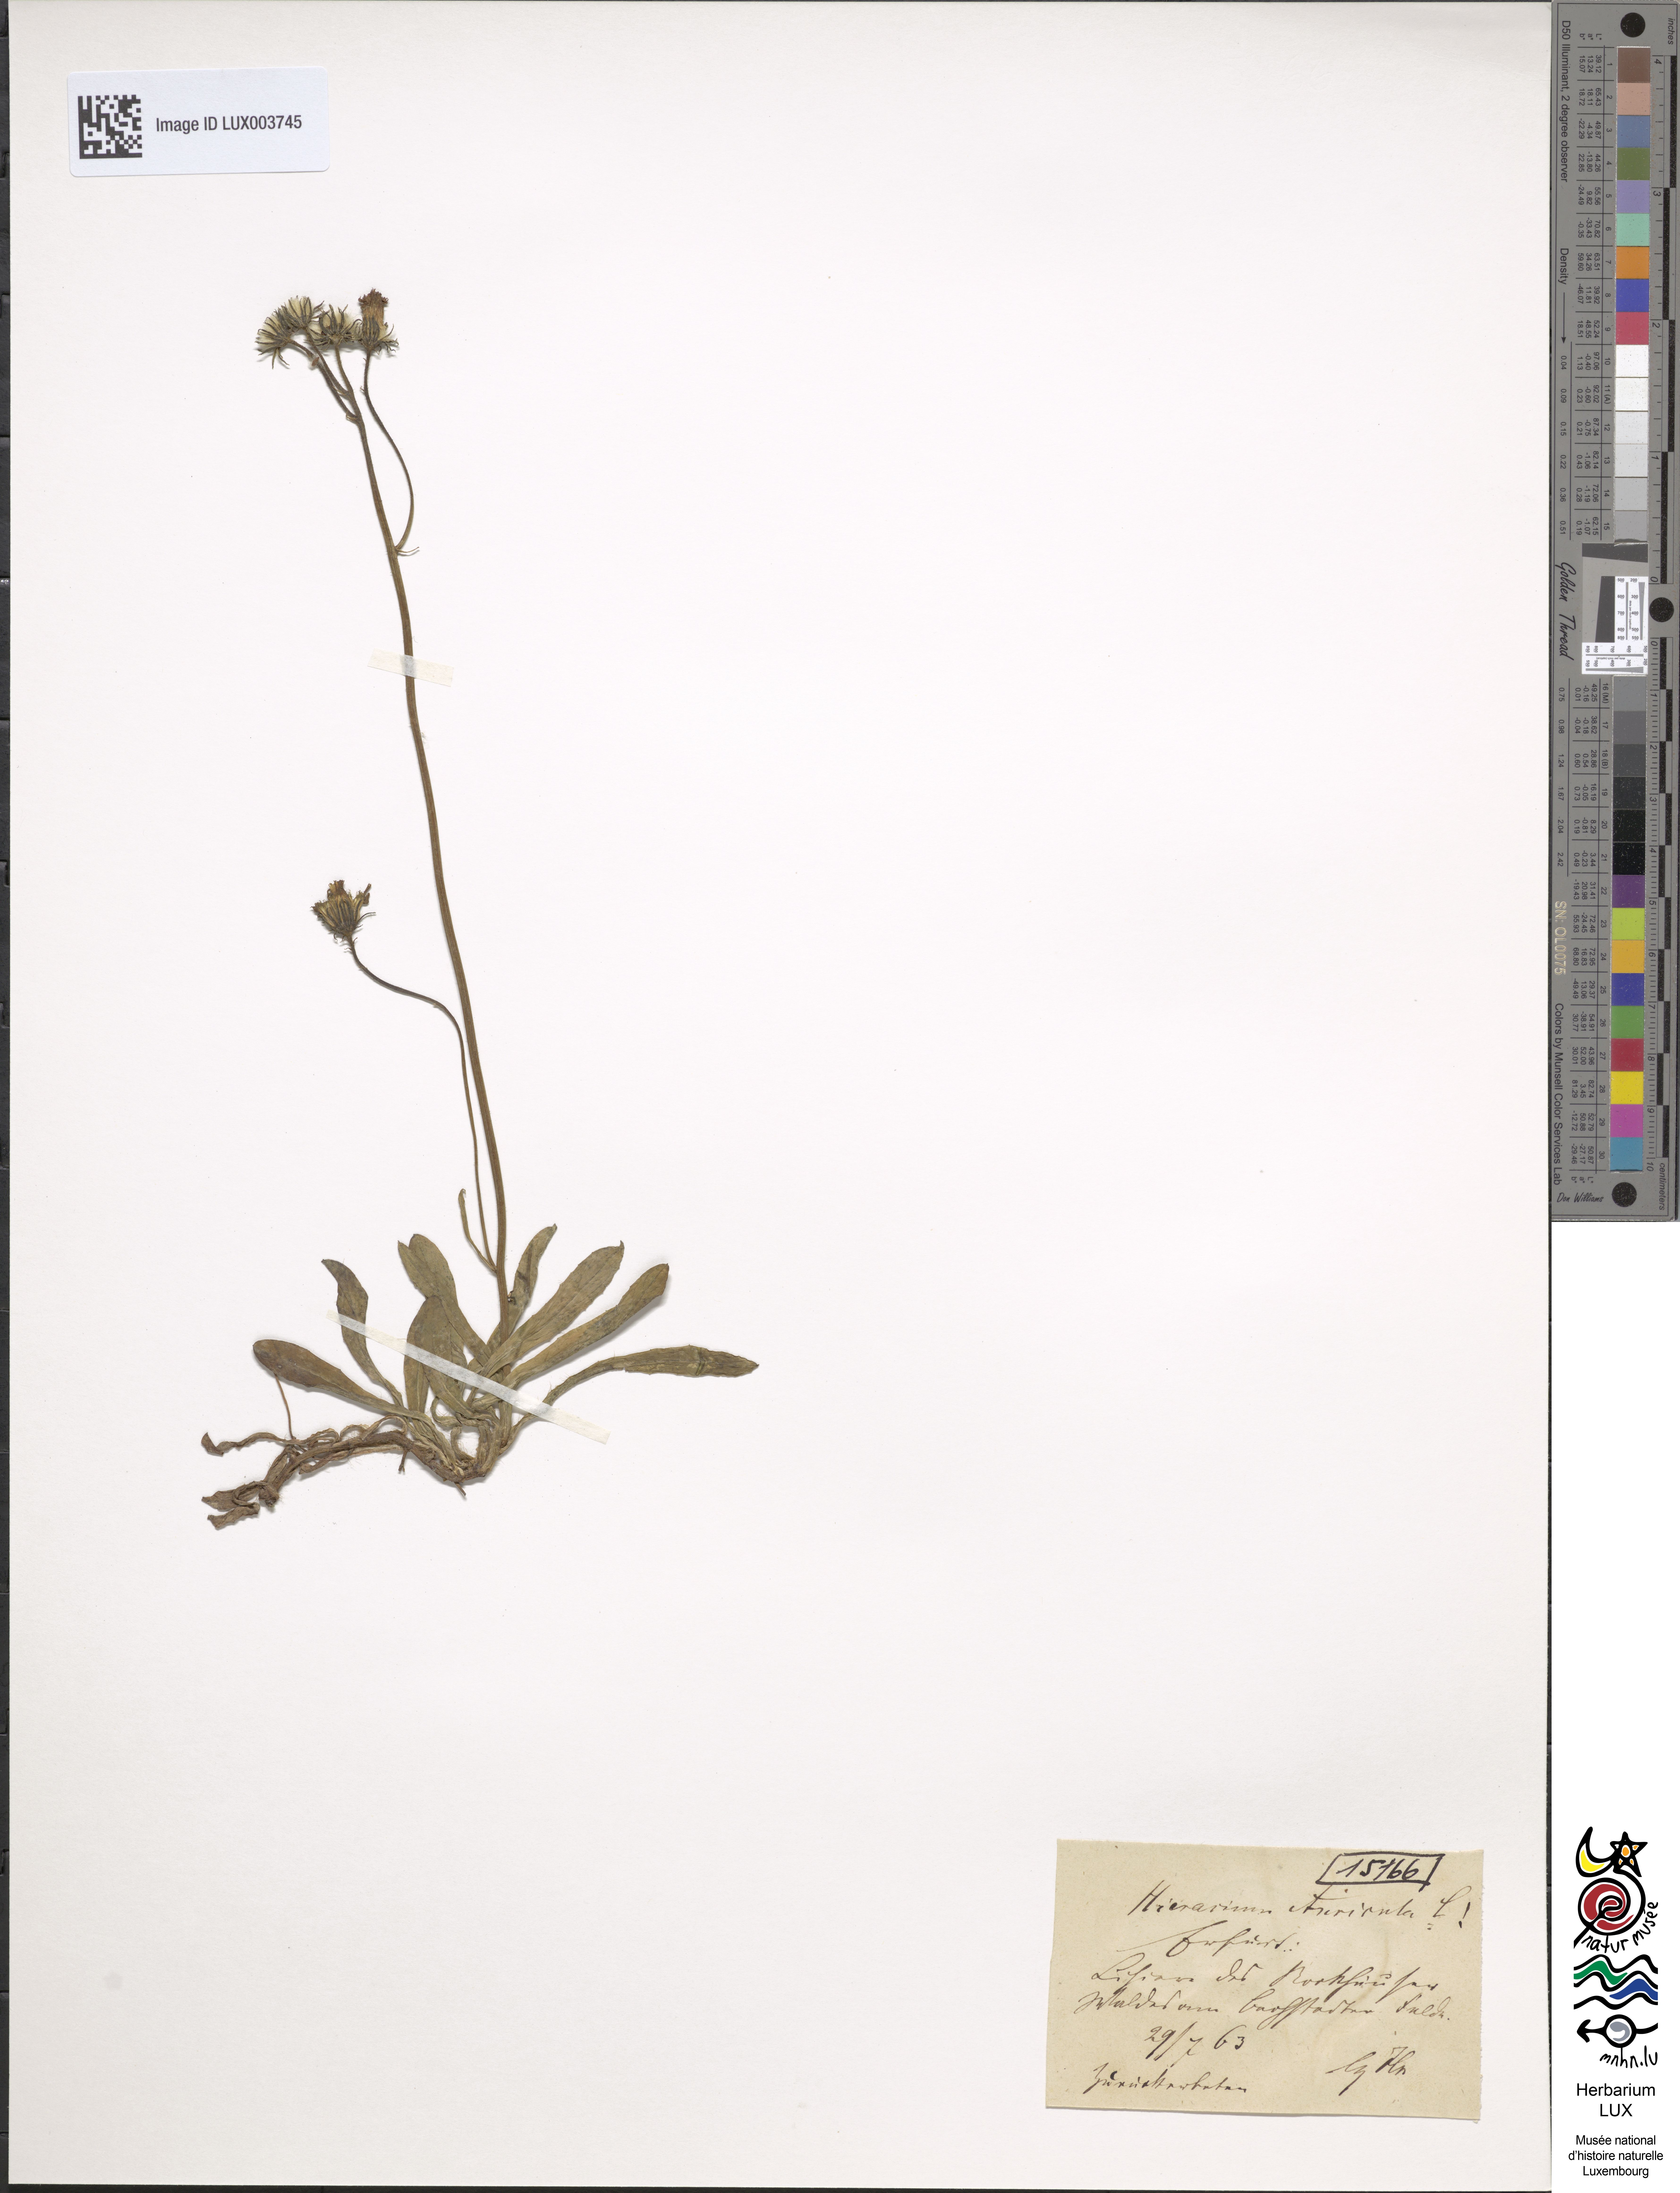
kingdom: Plantae
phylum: Tracheophyta
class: Magnoliopsida
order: Asterales
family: Asteraceae
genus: Pilosella
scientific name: Pilosella floribunda
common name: Glaucous hawkweed
